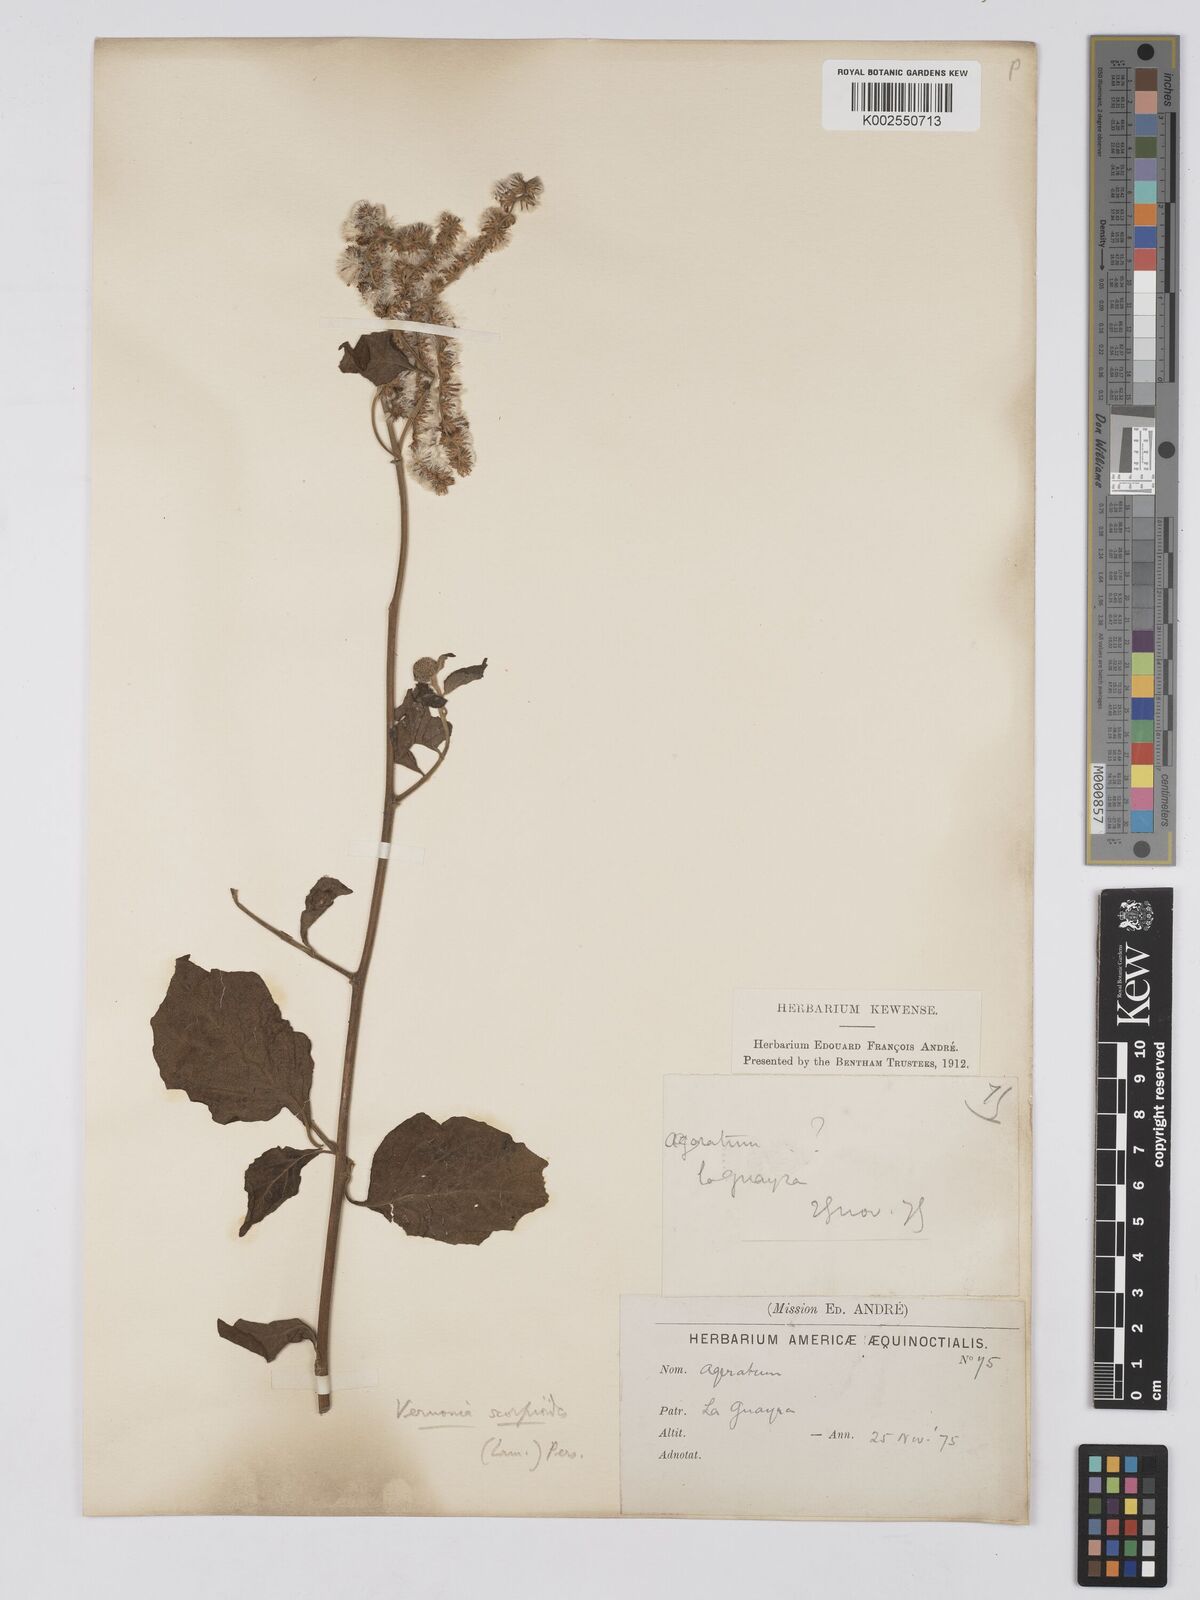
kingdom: Plantae
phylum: Tracheophyta
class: Magnoliopsida
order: Asterales
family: Asteraceae
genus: Cyrtocymura
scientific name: Cyrtocymura scorpioides
